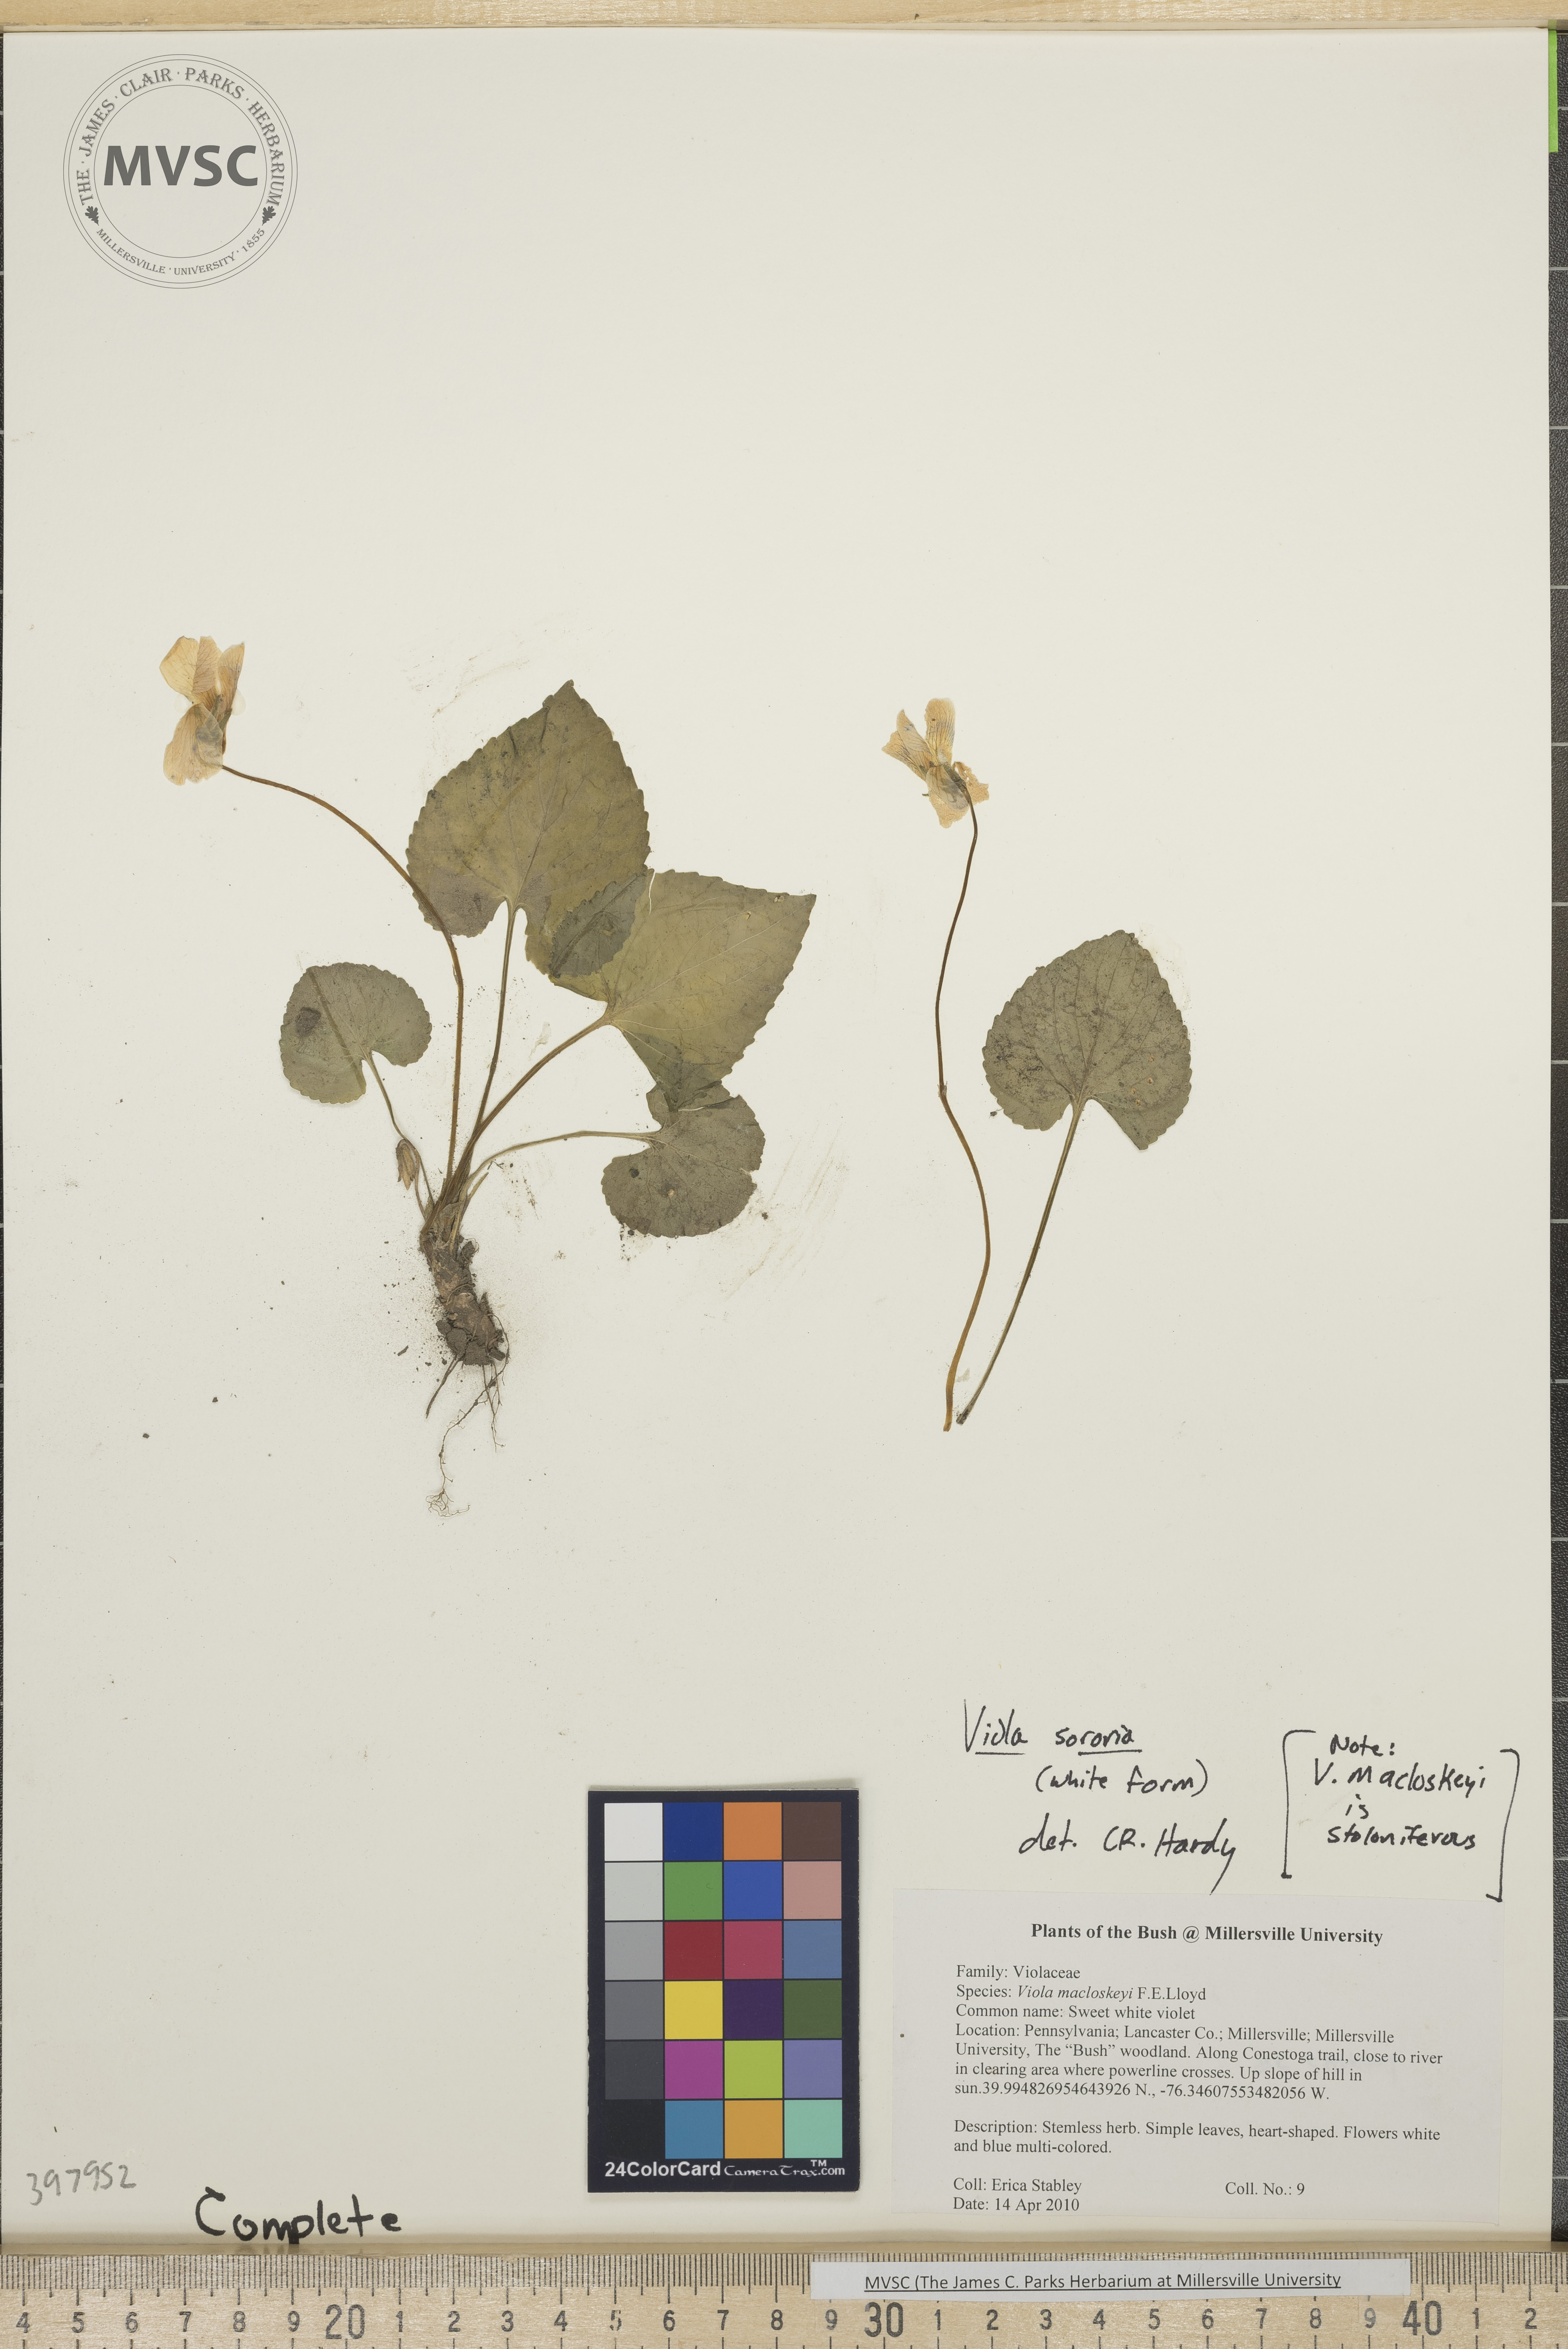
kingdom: Plantae
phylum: Tracheophyta
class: Magnoliopsida
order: Malpighiales
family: Violaceae
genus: Viola
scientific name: Viola sororia
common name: Violet
